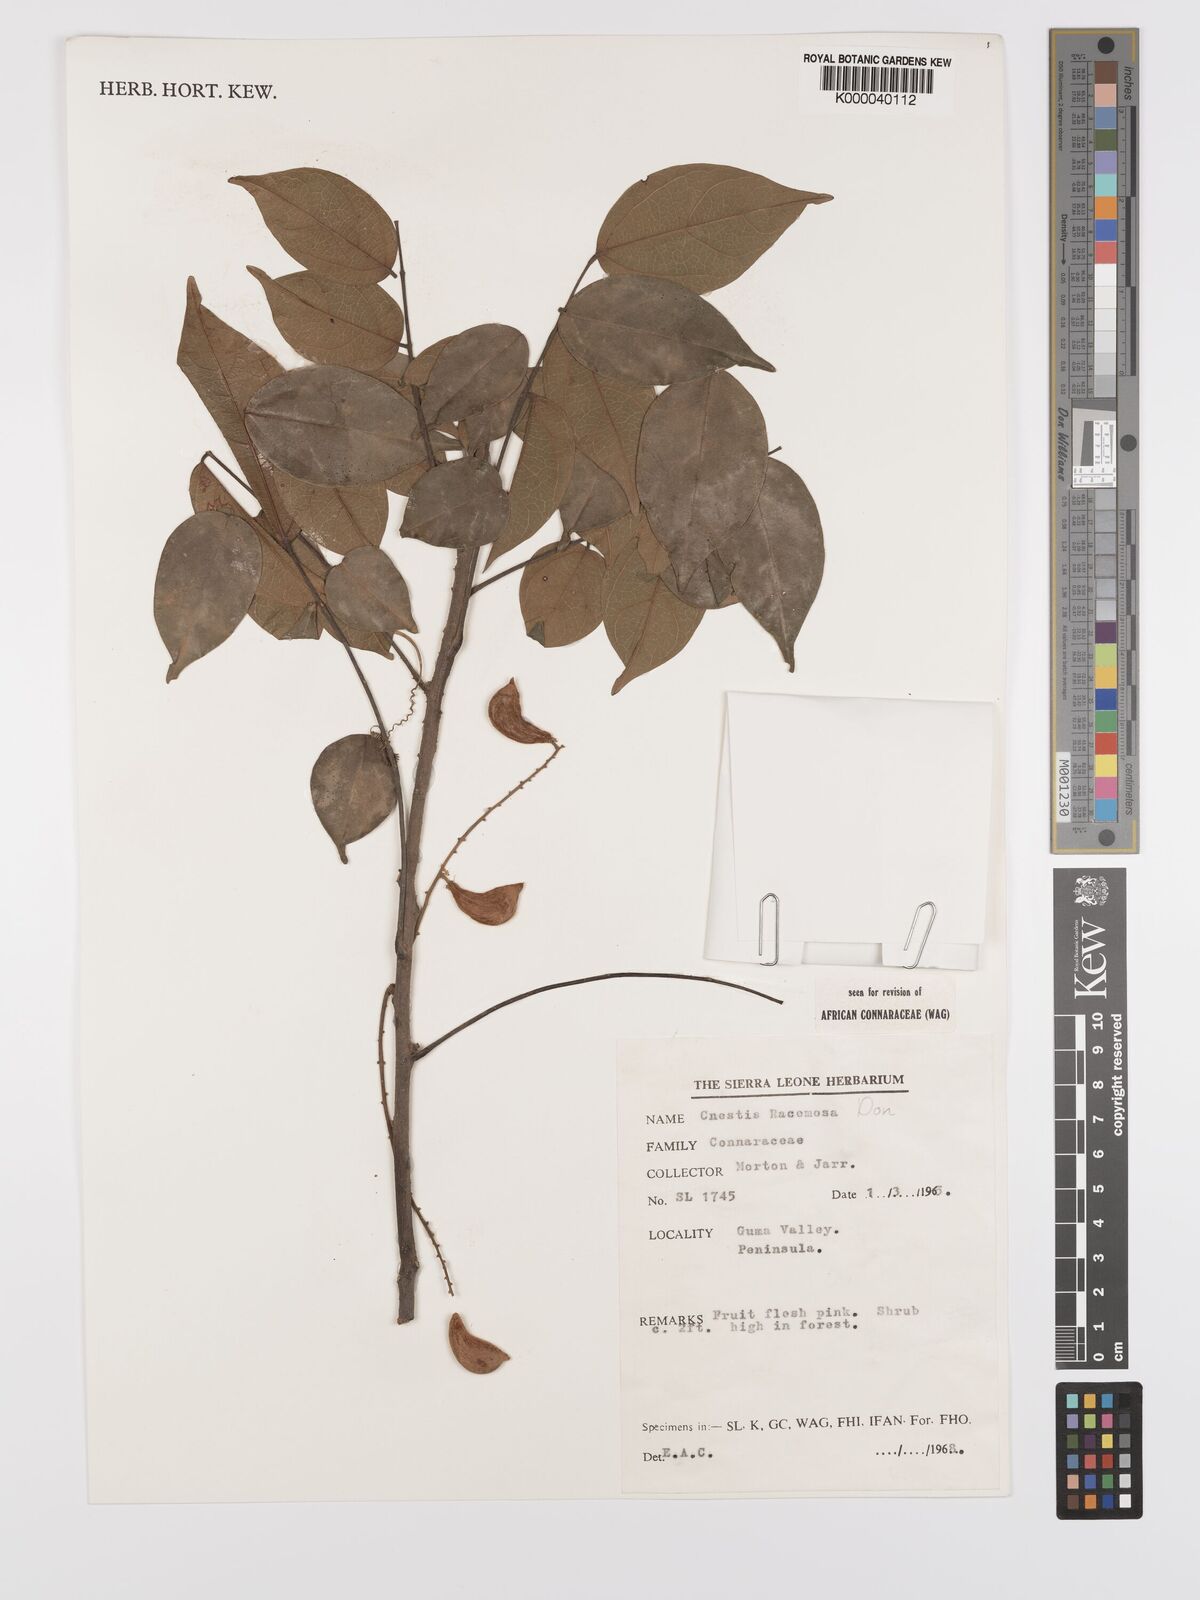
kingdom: Plantae
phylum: Tracheophyta
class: Magnoliopsida
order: Oxalidales
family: Connaraceae
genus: Cnestis
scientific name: Cnestis racemosa
